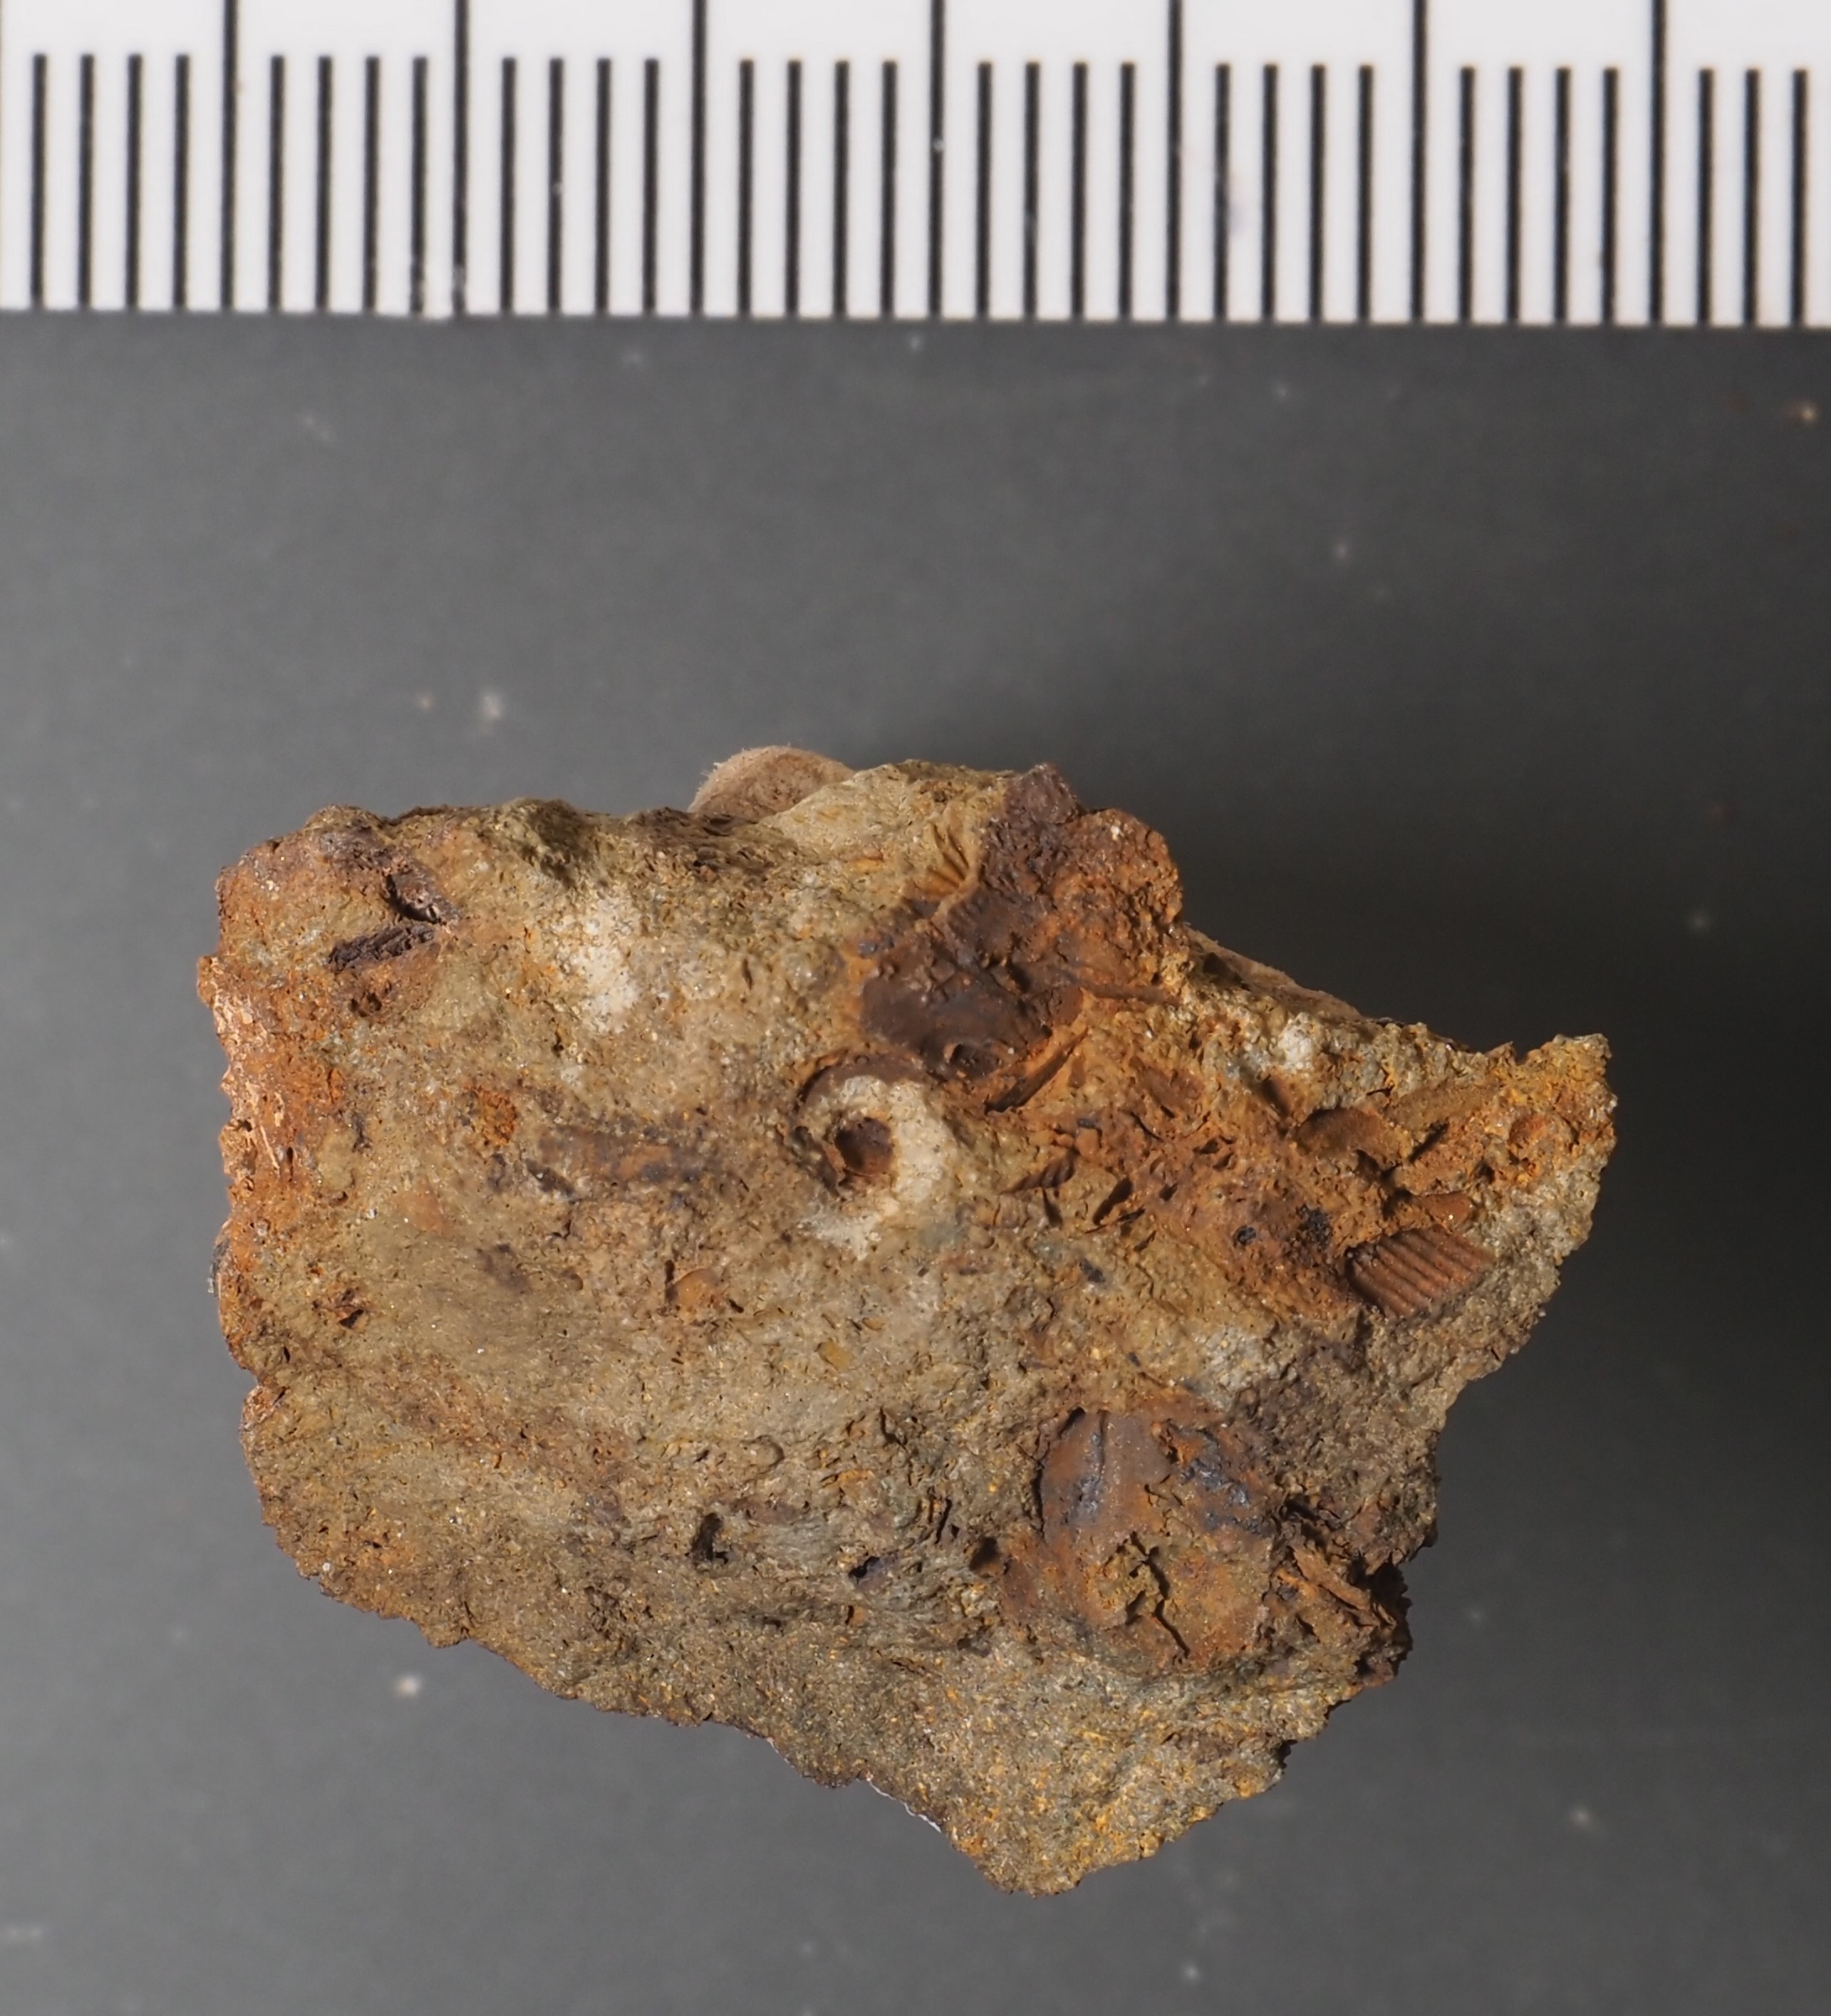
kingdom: Animalia
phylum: Arthropoda
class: Ostracoda
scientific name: Ostracoda
